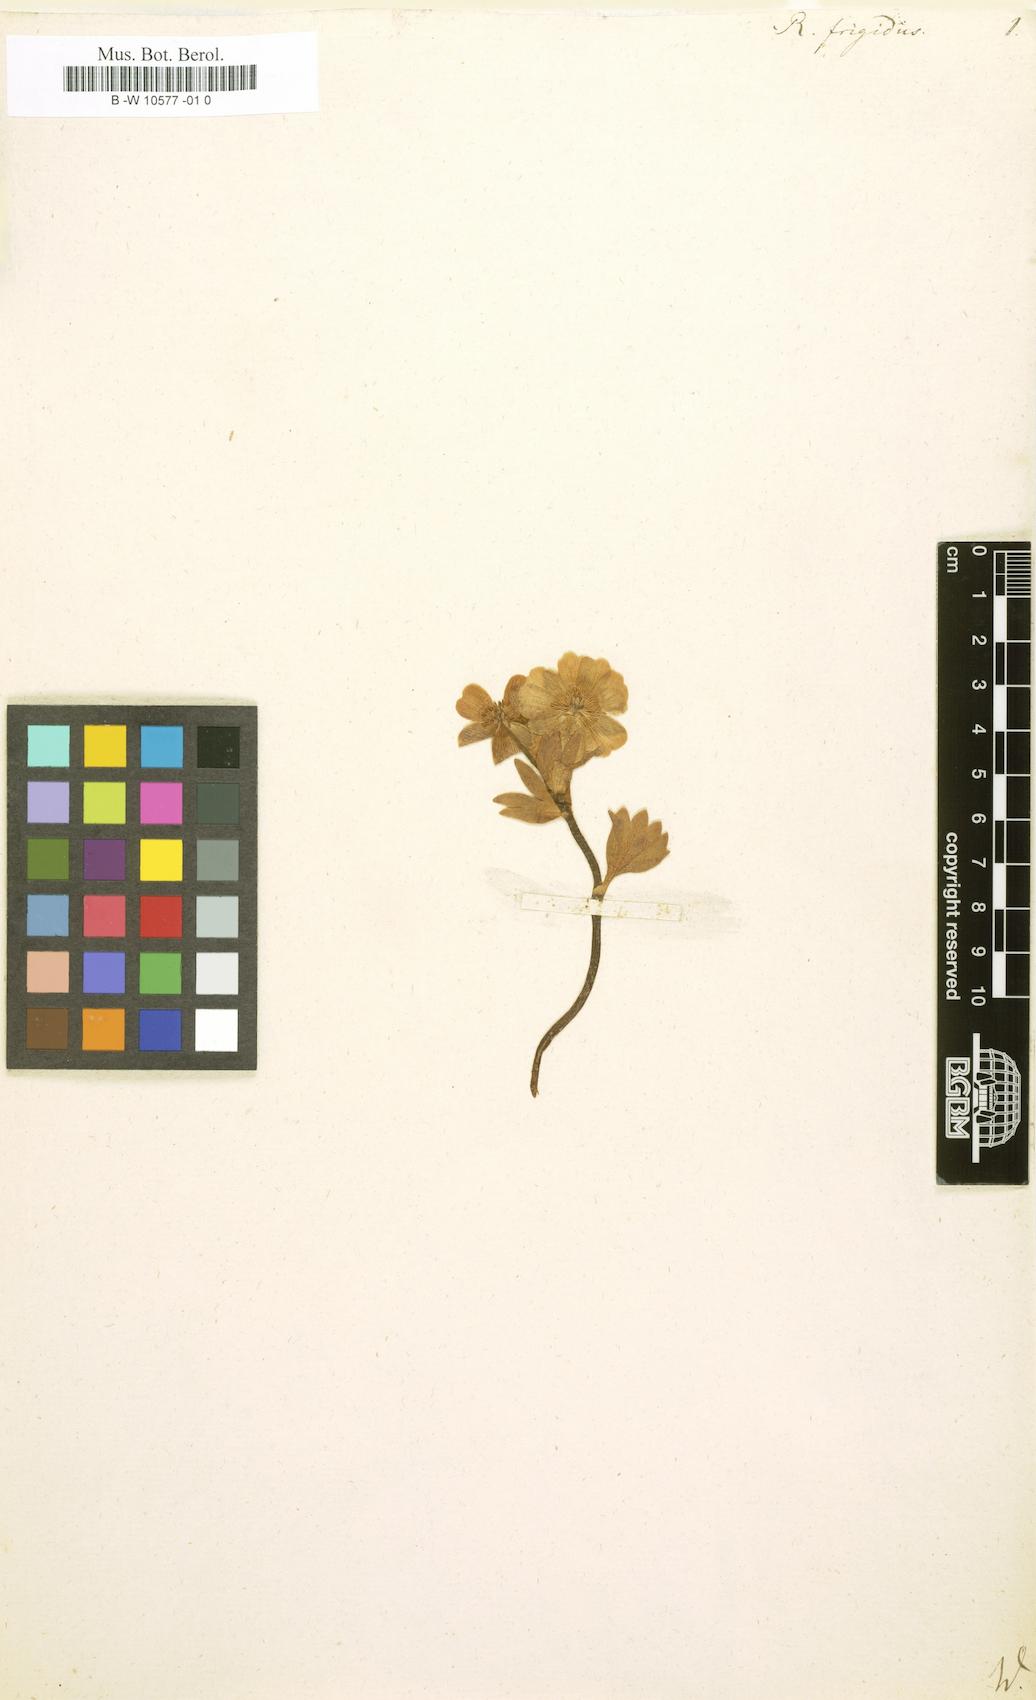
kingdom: Plantae
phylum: Tracheophyta
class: Magnoliopsida
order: Ranunculales
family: Ranunculaceae
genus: Ranunculus
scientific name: Ranunculus
